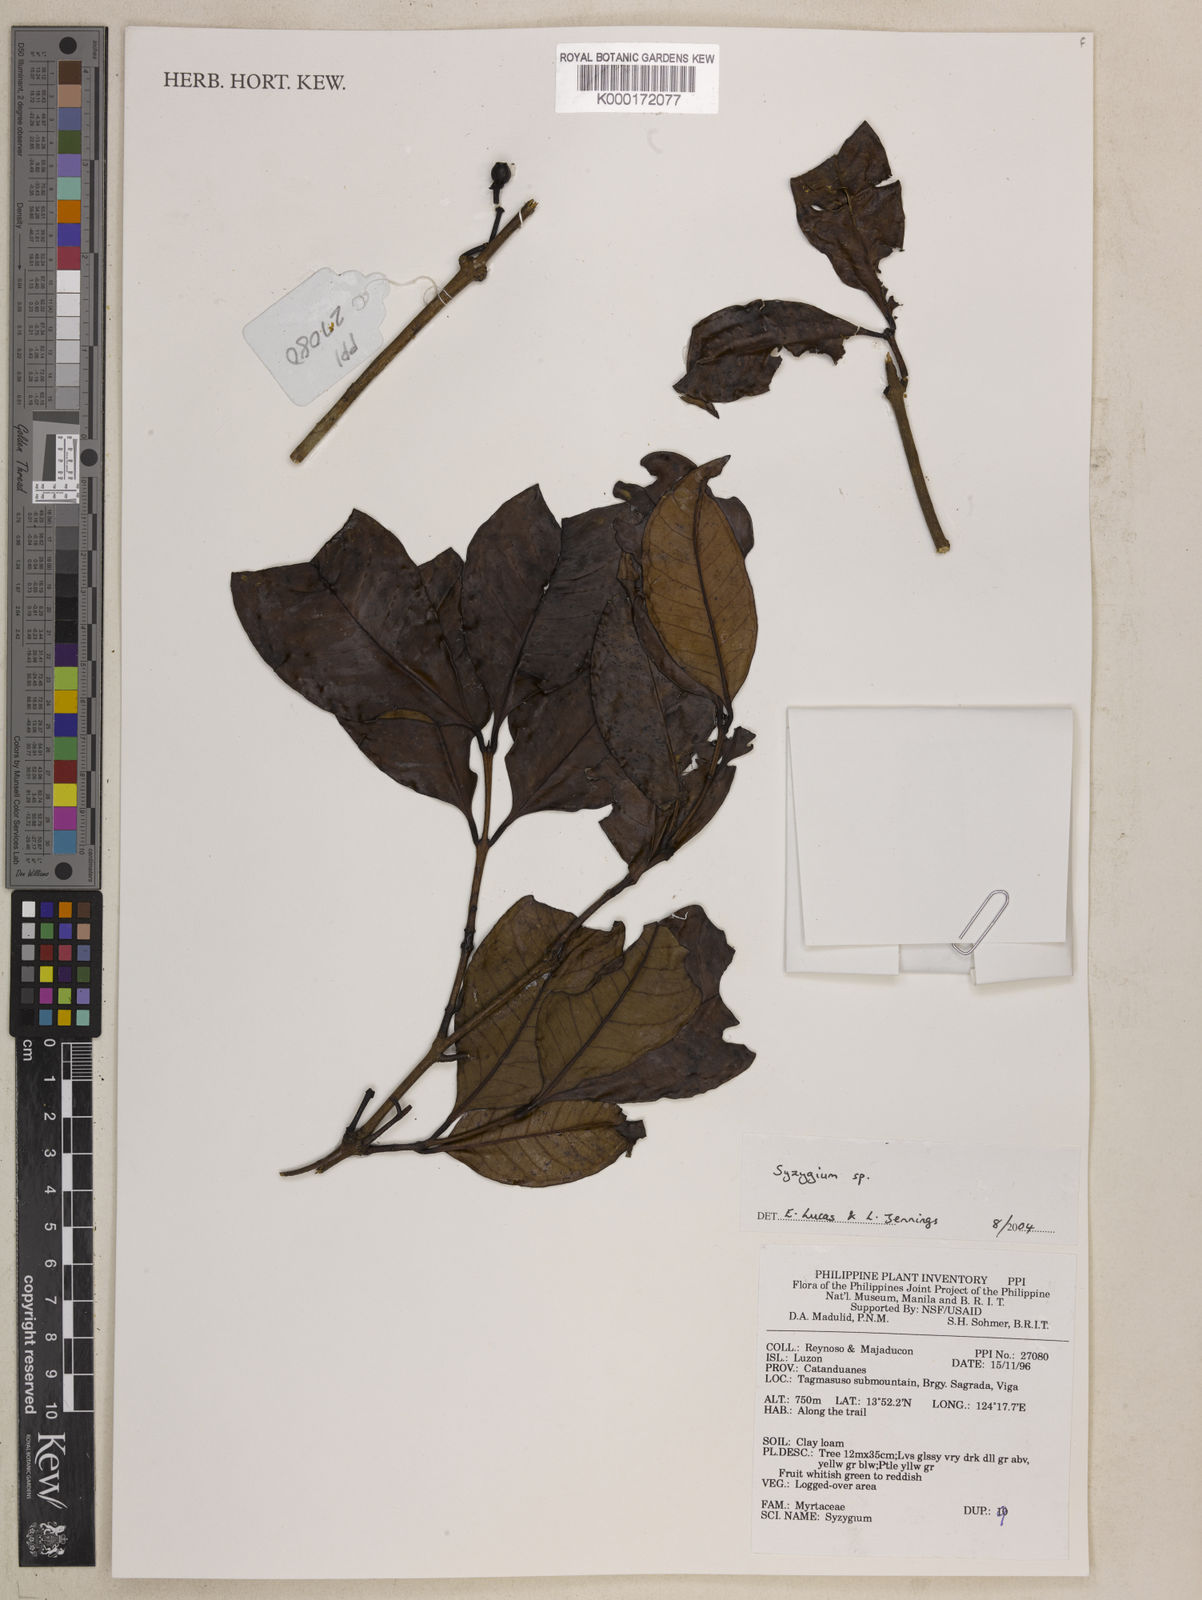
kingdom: Plantae
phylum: Tracheophyta
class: Magnoliopsida
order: Myrtales
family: Myrtaceae
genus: Syzygium
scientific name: Syzygium
